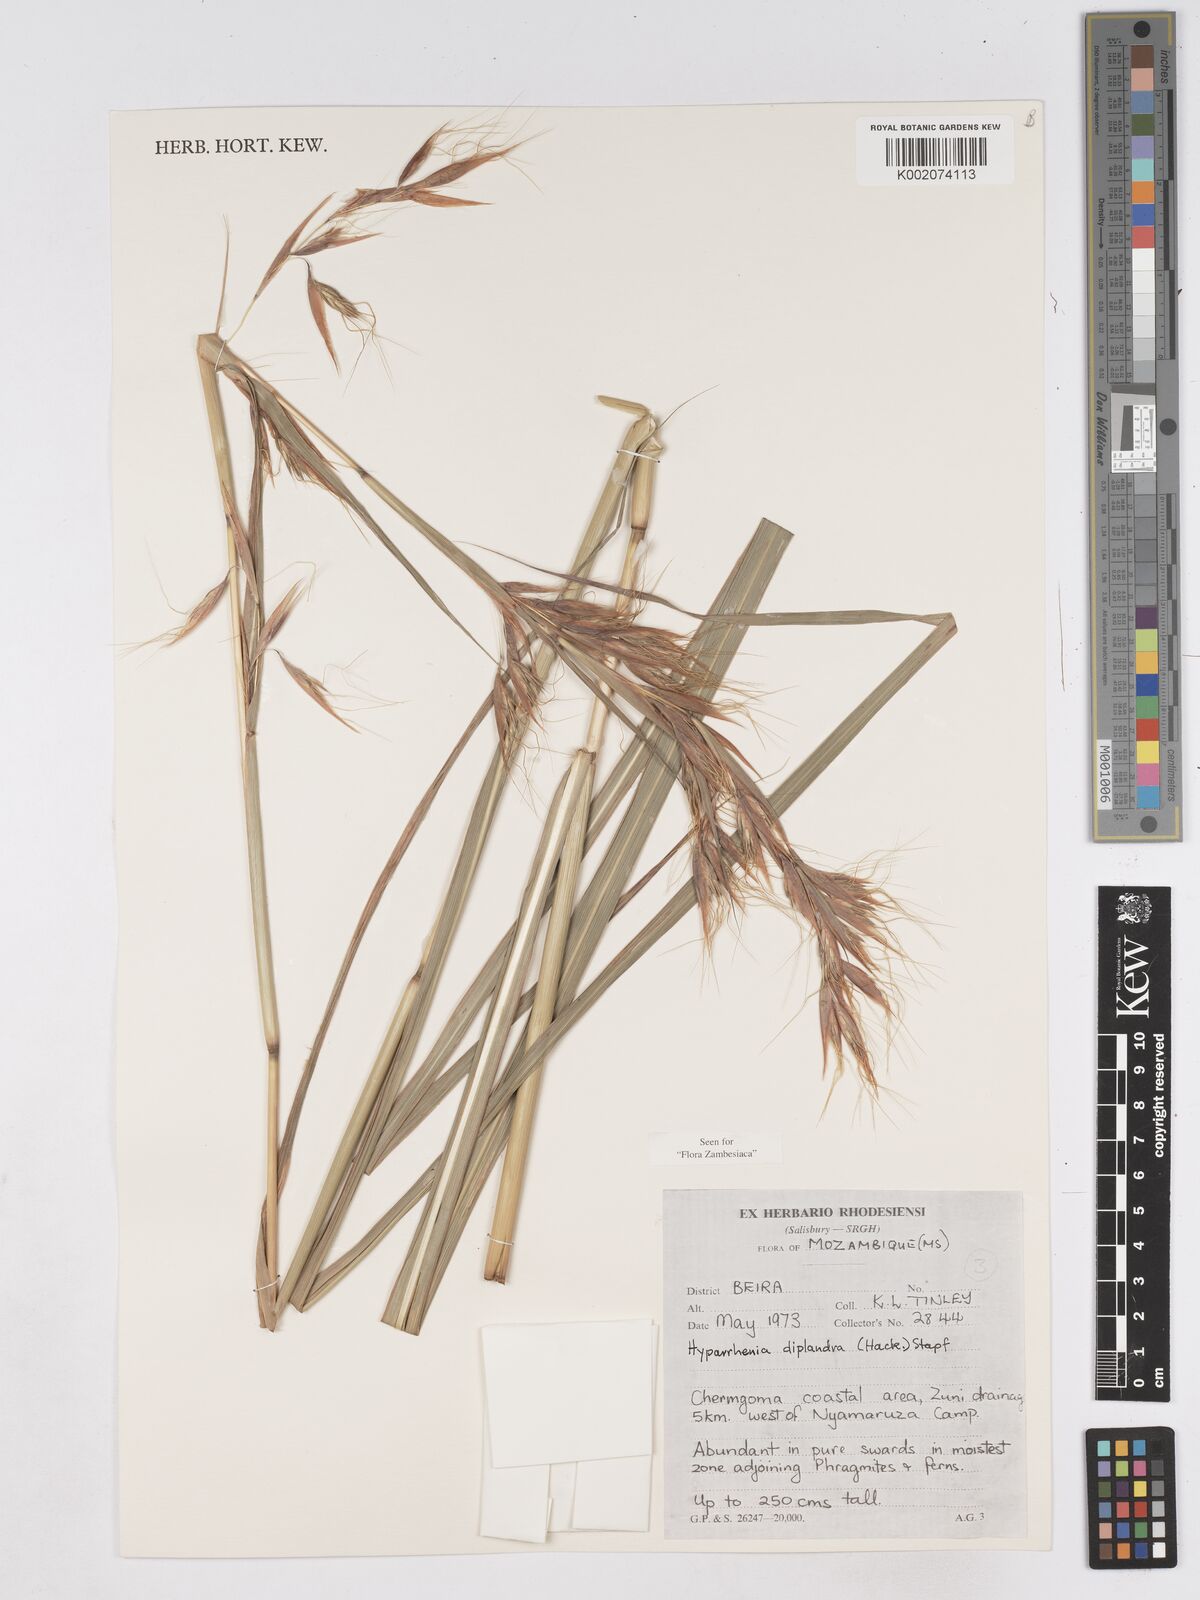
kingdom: Plantae
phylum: Tracheophyta
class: Liliopsida
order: Poales
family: Poaceae
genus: Hyparrhenia
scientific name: Hyparrhenia diplandra
